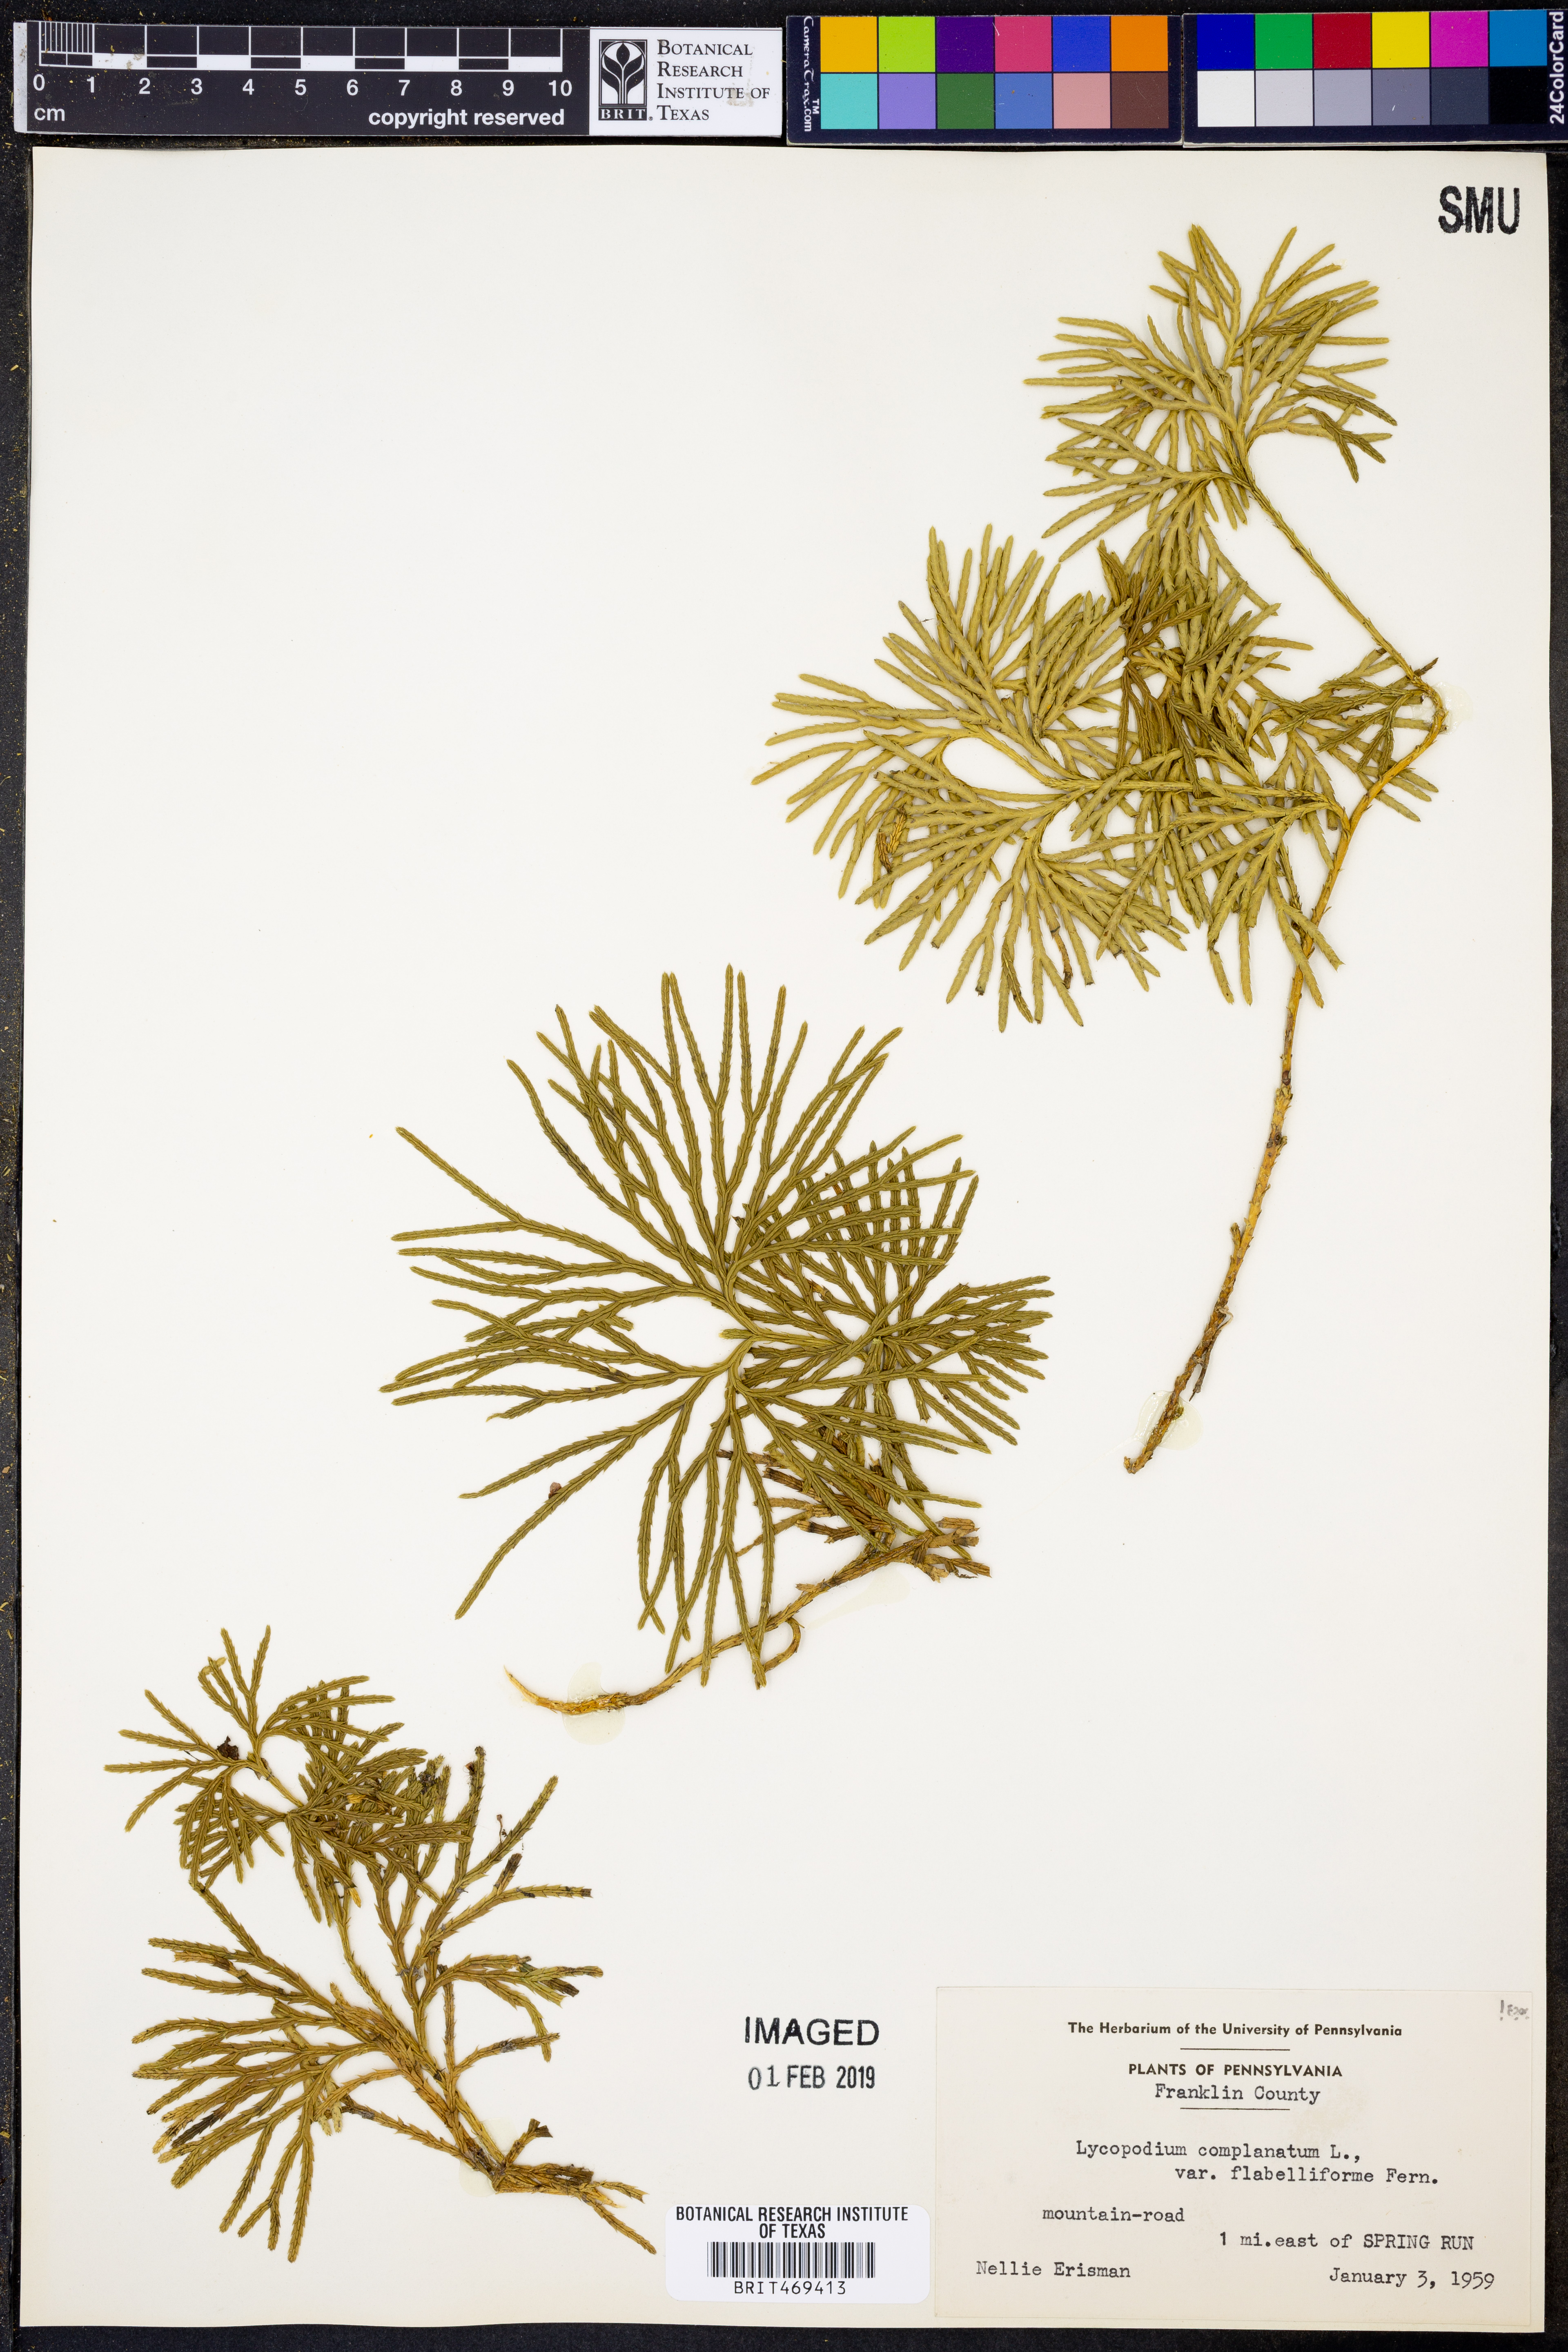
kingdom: Plantae
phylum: Tracheophyta
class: Lycopodiopsida
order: Lycopodiales
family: Lycopodiaceae
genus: Diphasiastrum
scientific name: Diphasiastrum digitatum
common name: Southern running-pine
